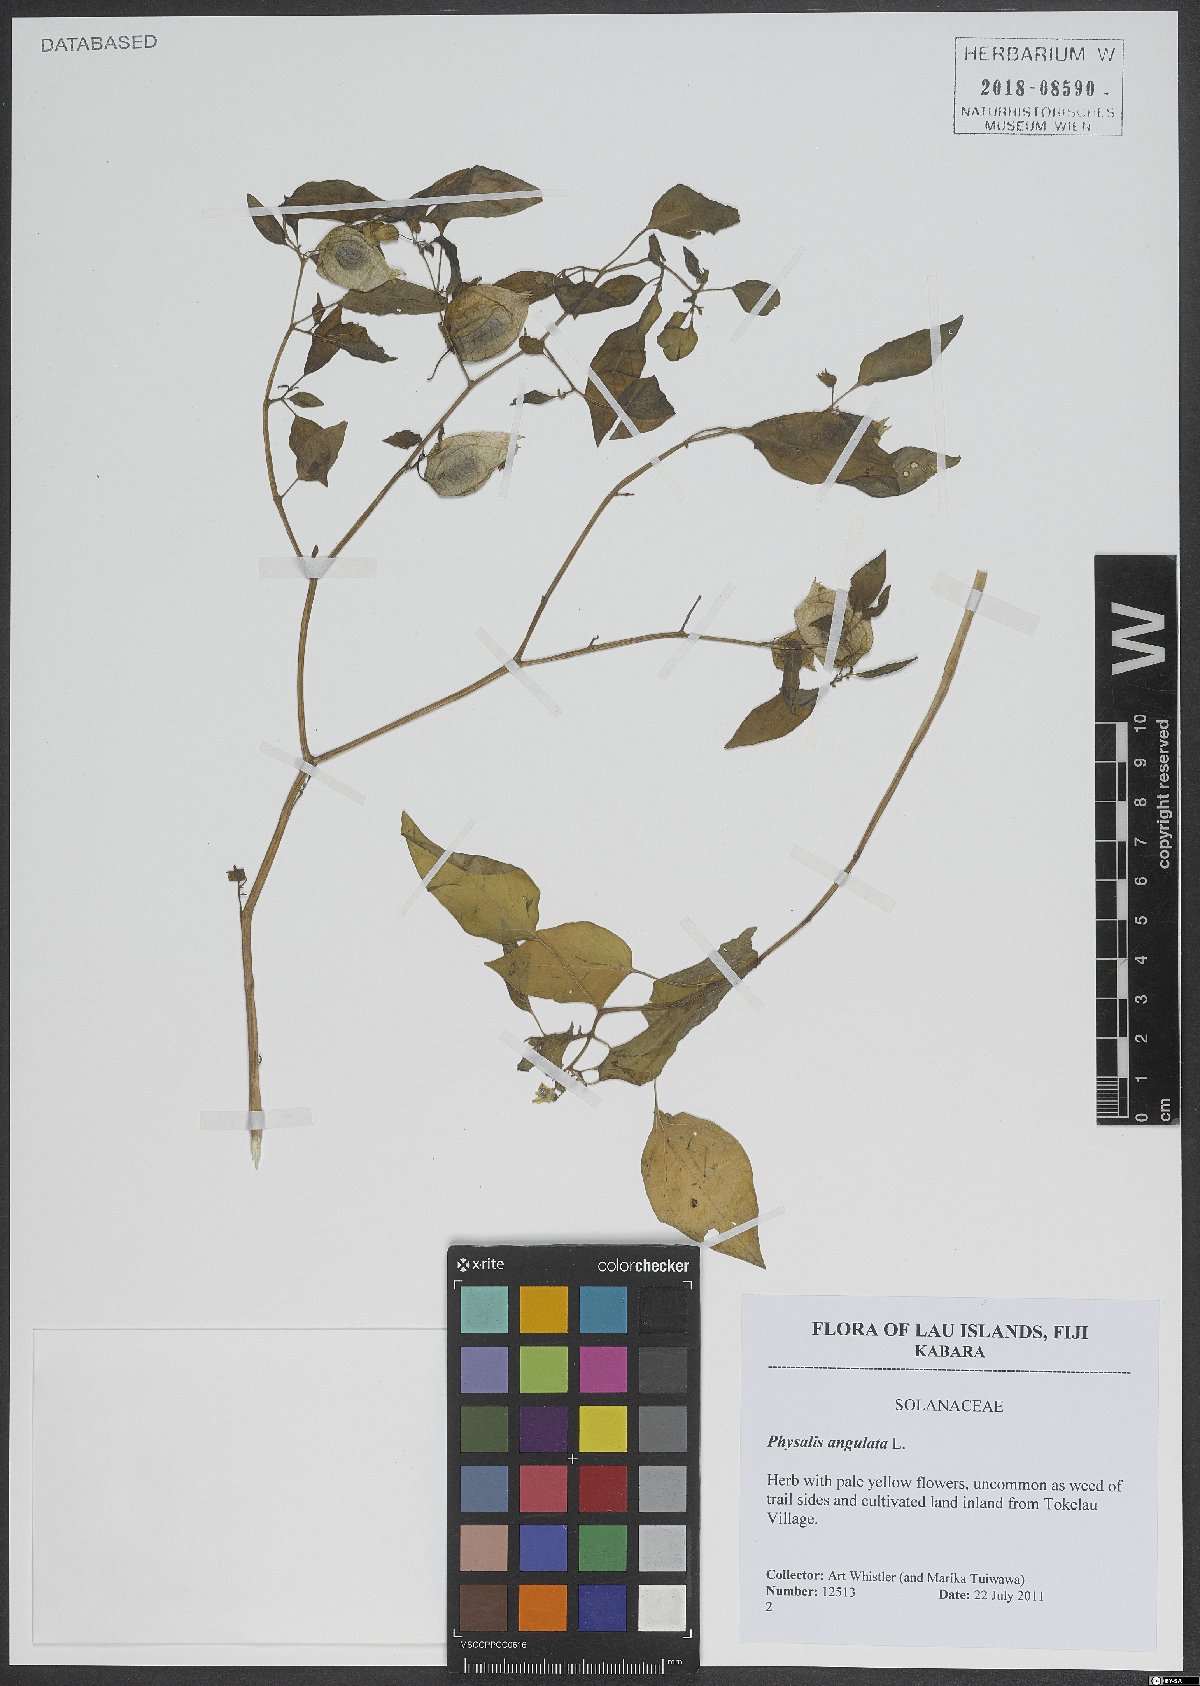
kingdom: Plantae
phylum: Tracheophyta
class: Magnoliopsida
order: Solanales
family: Solanaceae
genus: Physalis
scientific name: Physalis angulata
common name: Angular winter-cherry
